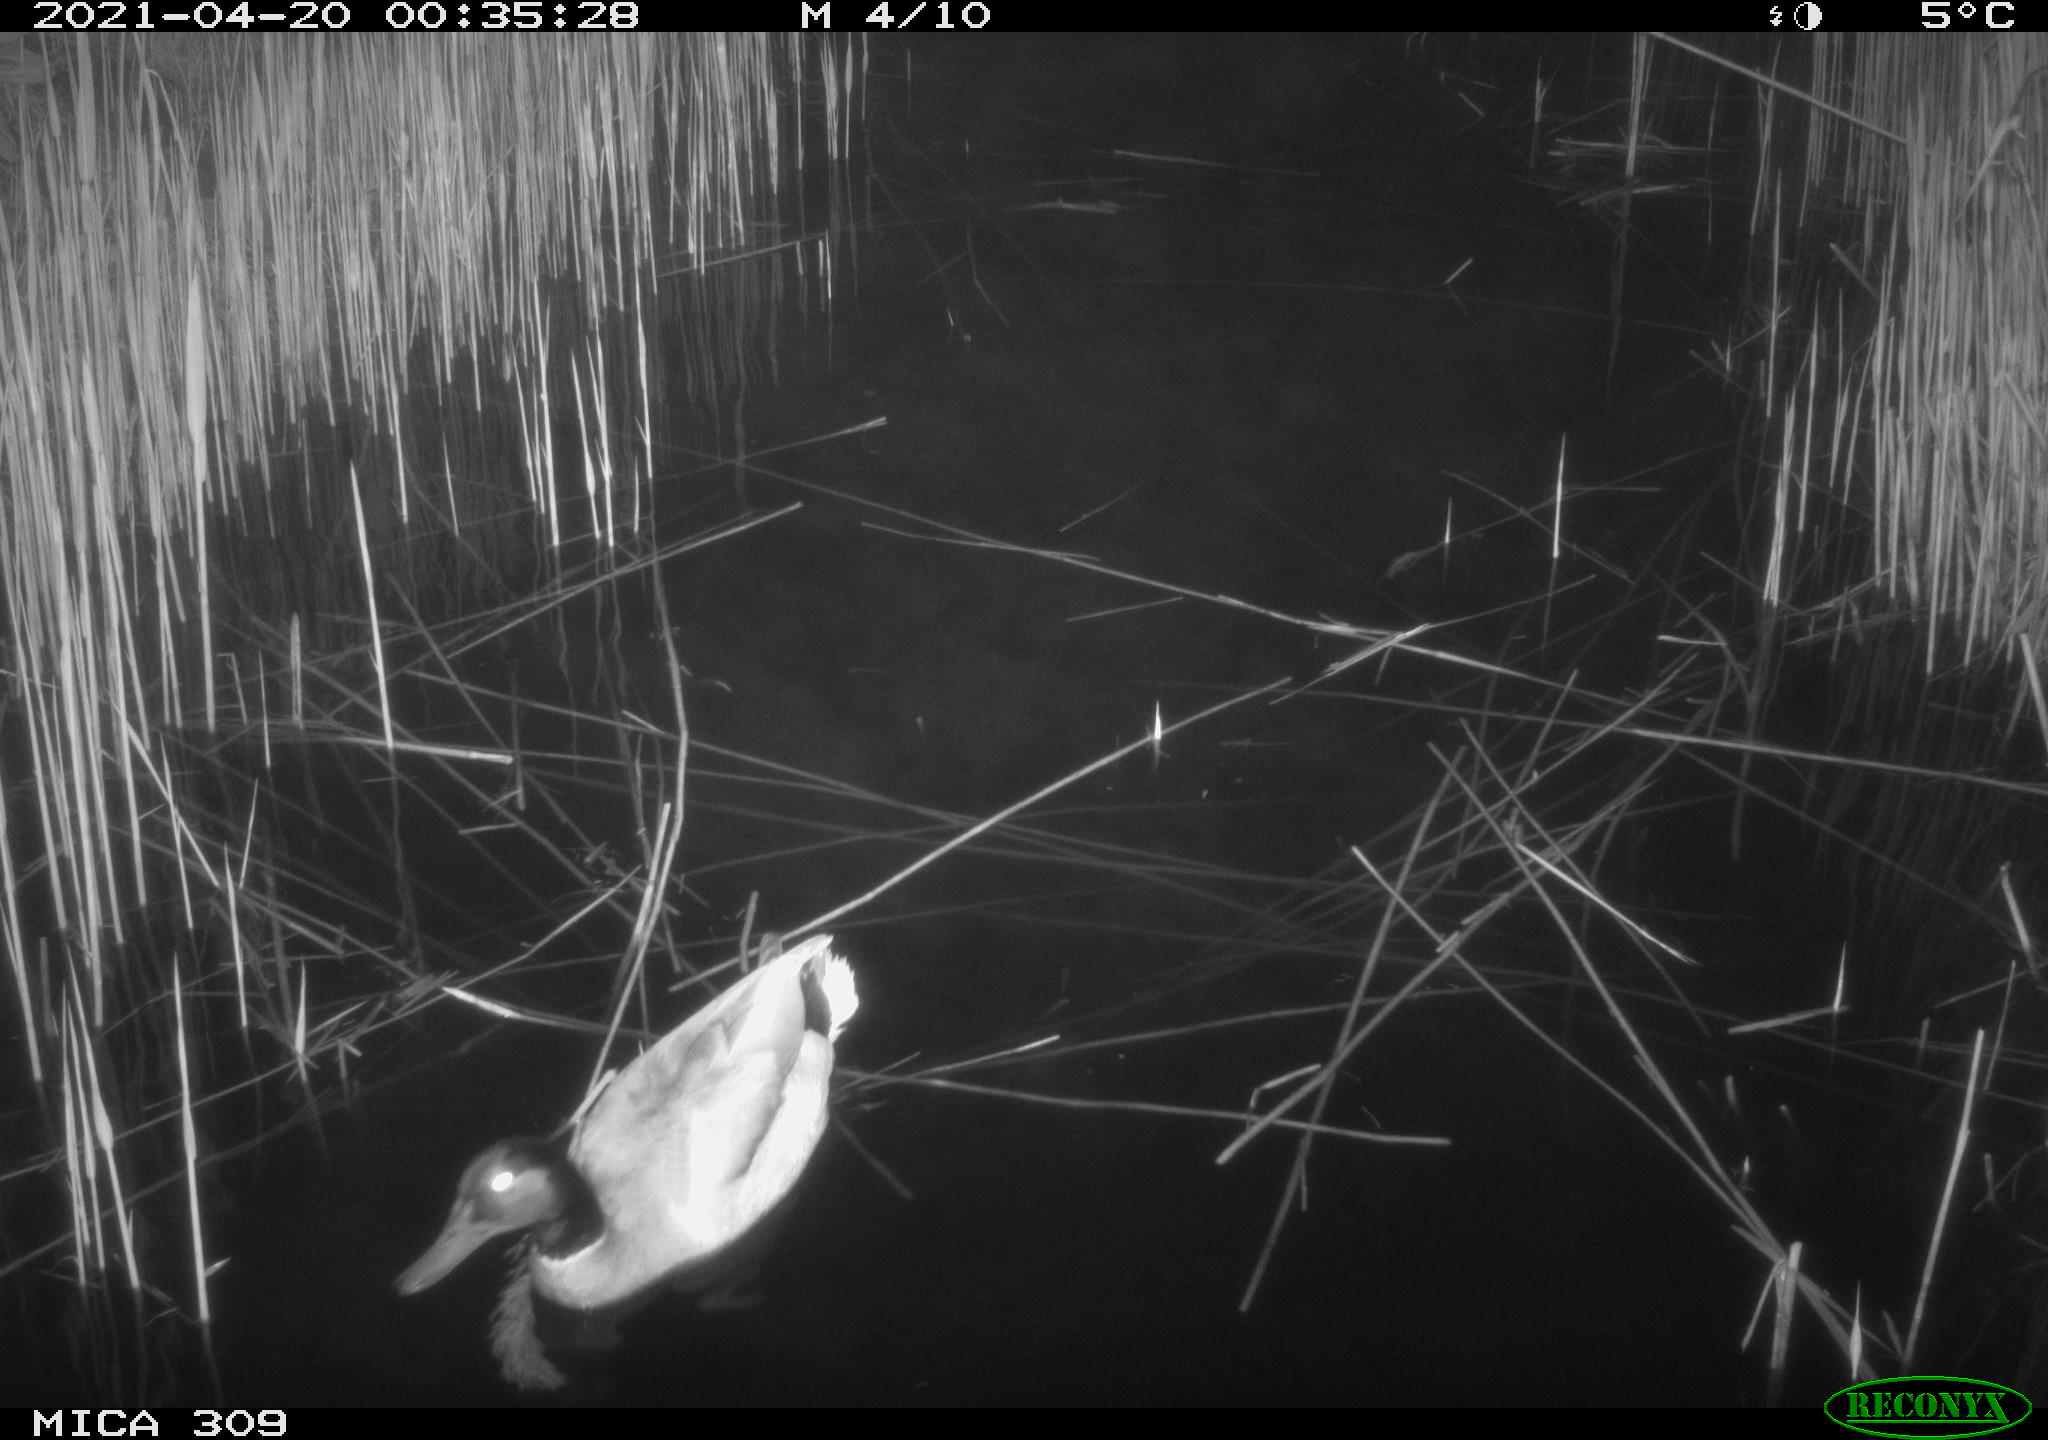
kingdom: Animalia
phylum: Chordata
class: Aves
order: Anseriformes
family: Anatidae
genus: Anas
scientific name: Anas platyrhynchos
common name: Mallard
